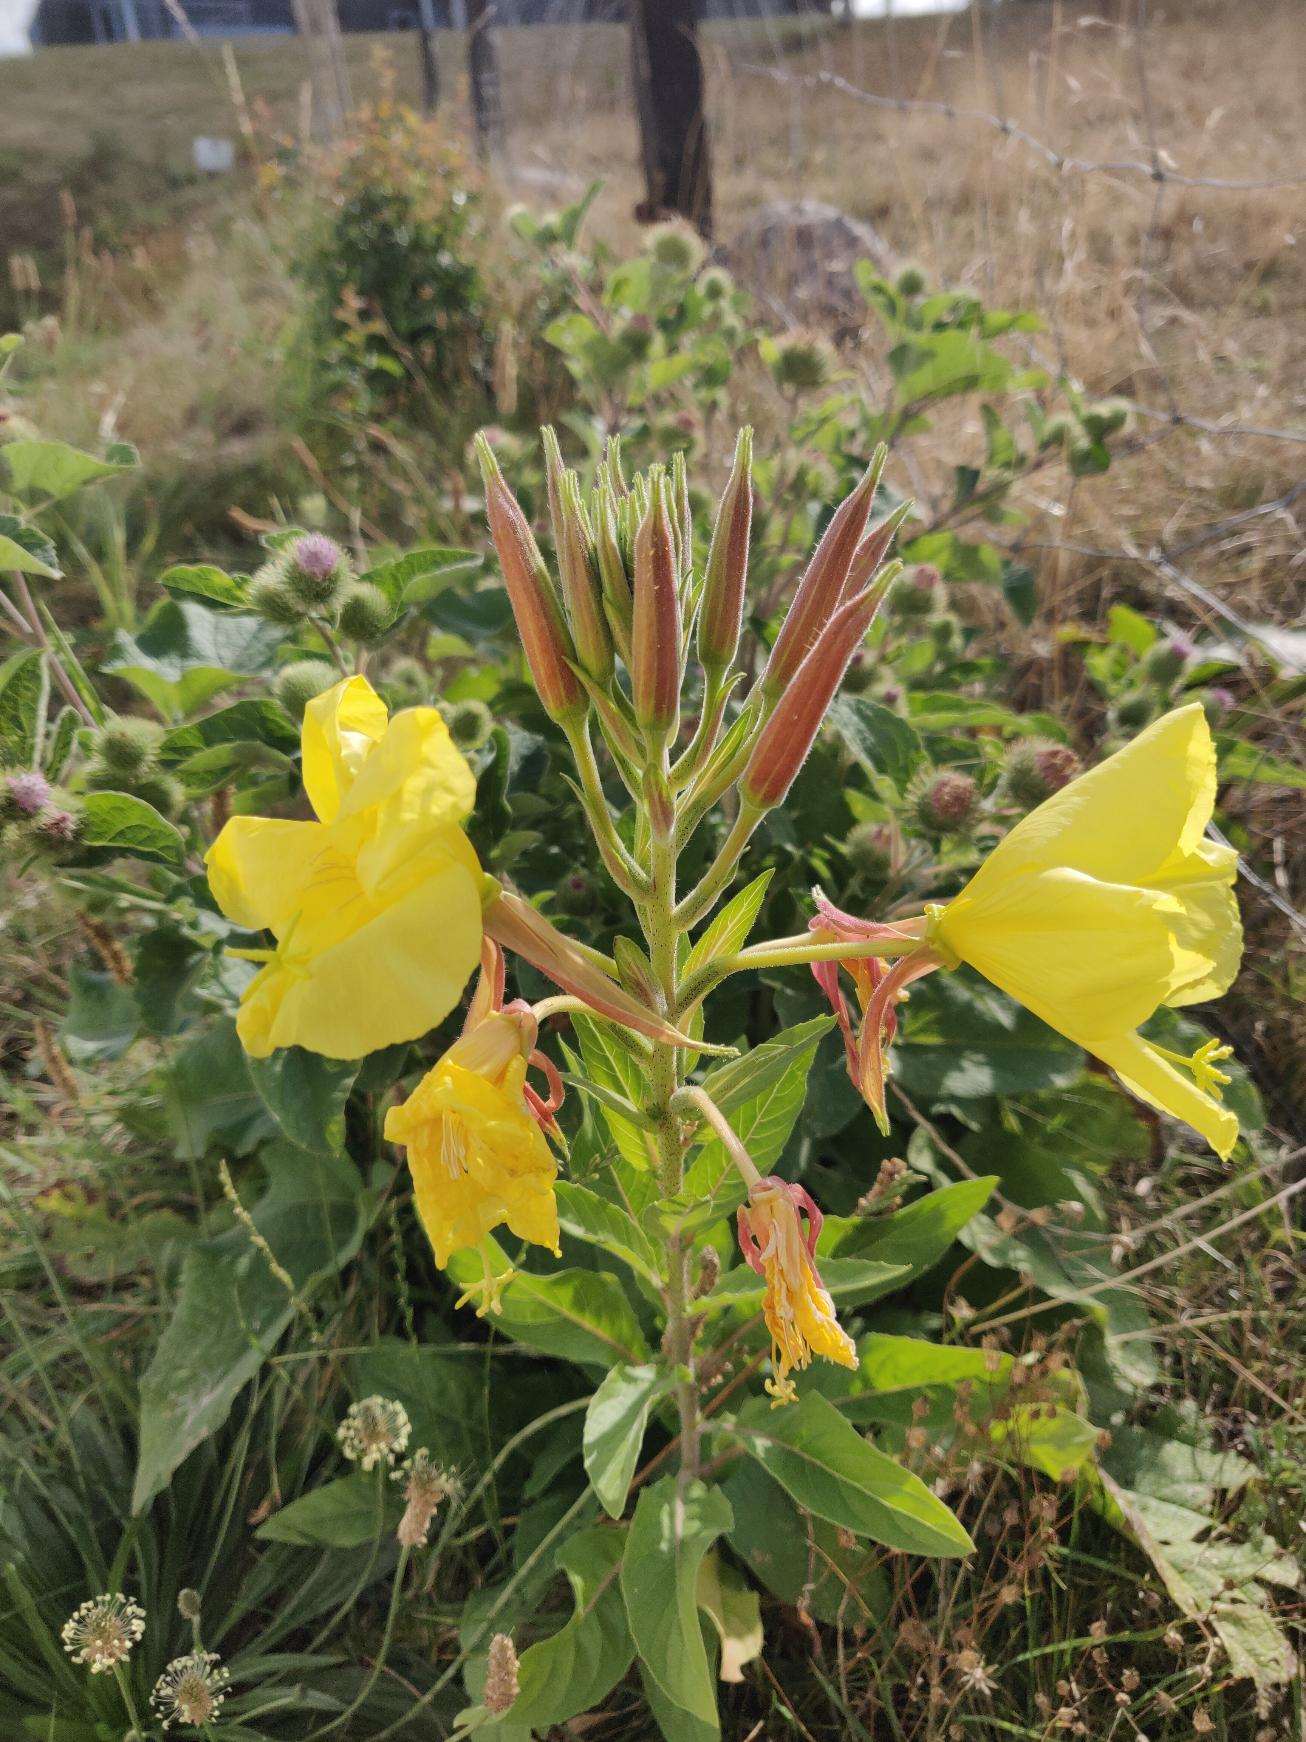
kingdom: Plantae
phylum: Tracheophyta
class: Magnoliopsida
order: Myrtales
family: Onagraceae
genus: Oenothera
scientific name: Oenothera glazioviana
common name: Kæmpe-natlys
